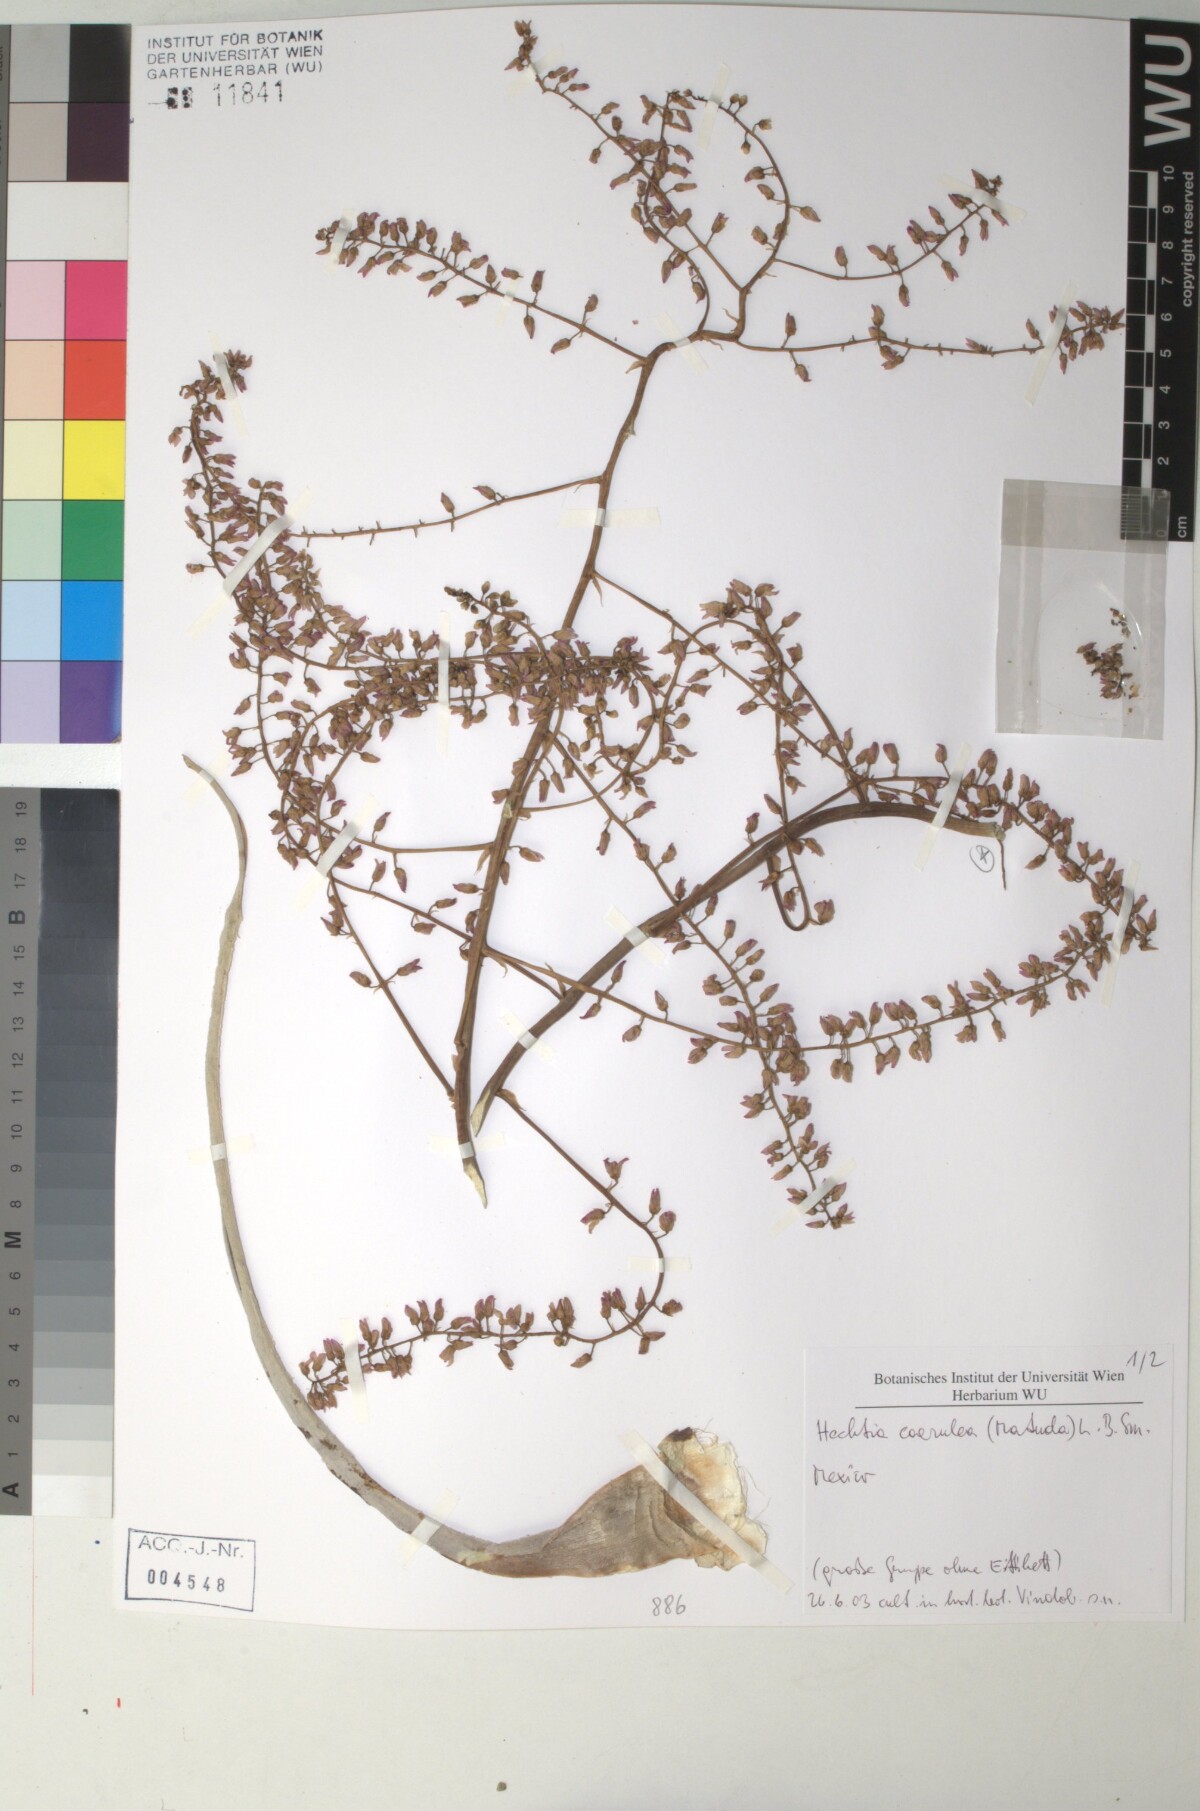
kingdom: Plantae
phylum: Tracheophyta
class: Liliopsida
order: Poales
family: Bromeliaceae
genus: Hechtia
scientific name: Hechtia
